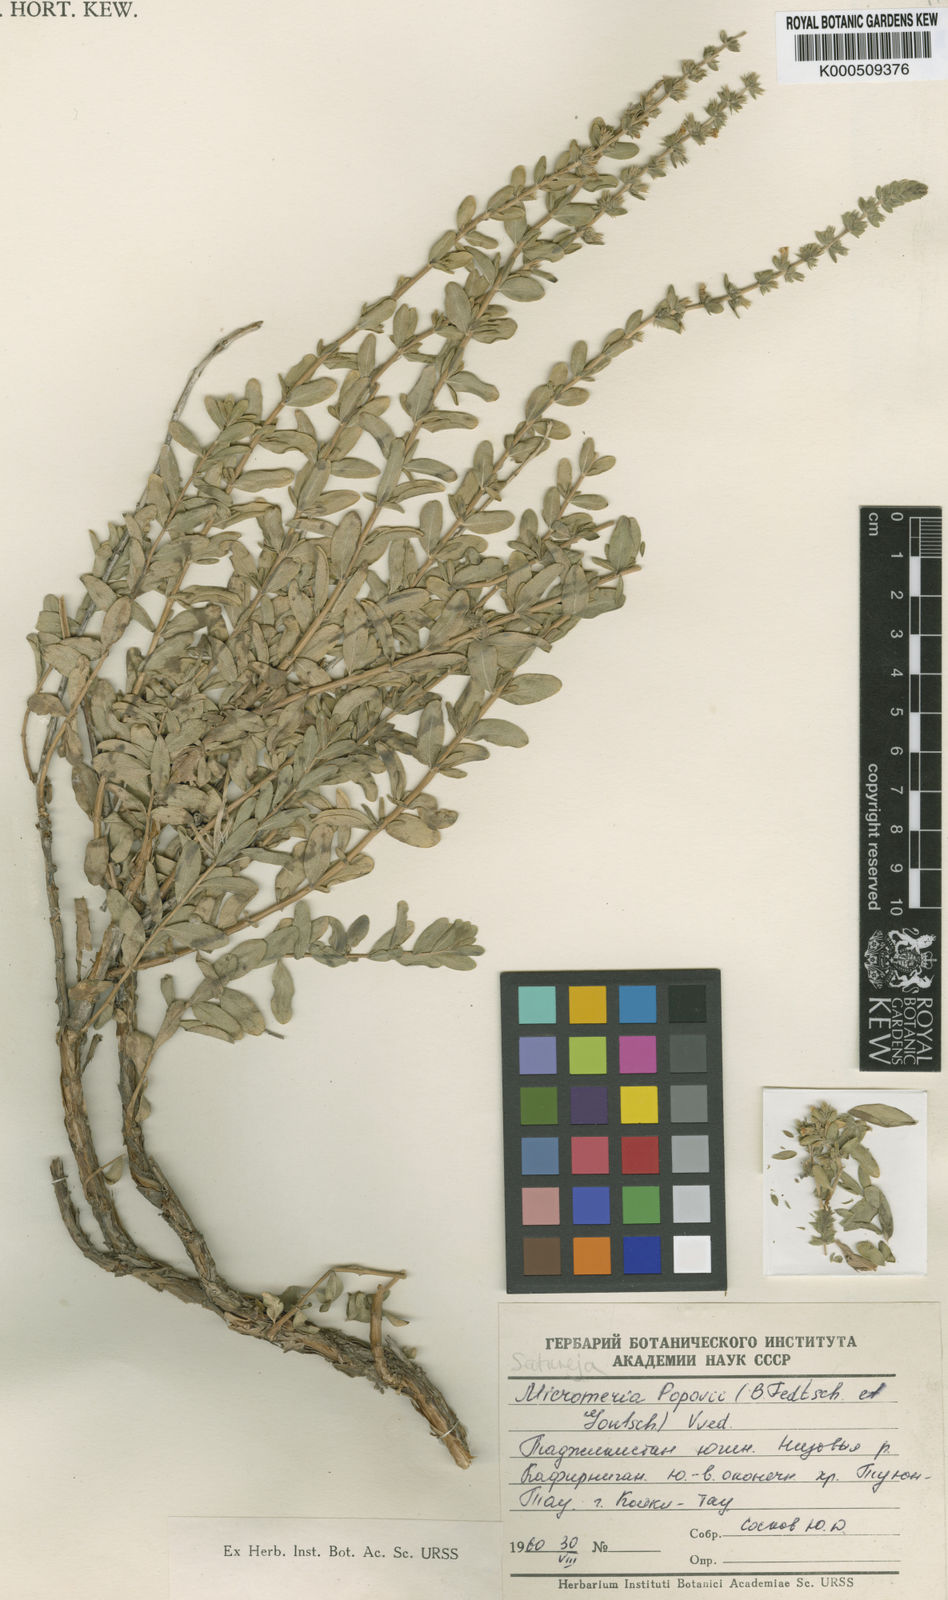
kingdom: Plantae
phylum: Tracheophyta
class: Magnoliopsida
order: Lamiales
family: Lamiaceae
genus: Gontscharovia
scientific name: Gontscharovia popovii
